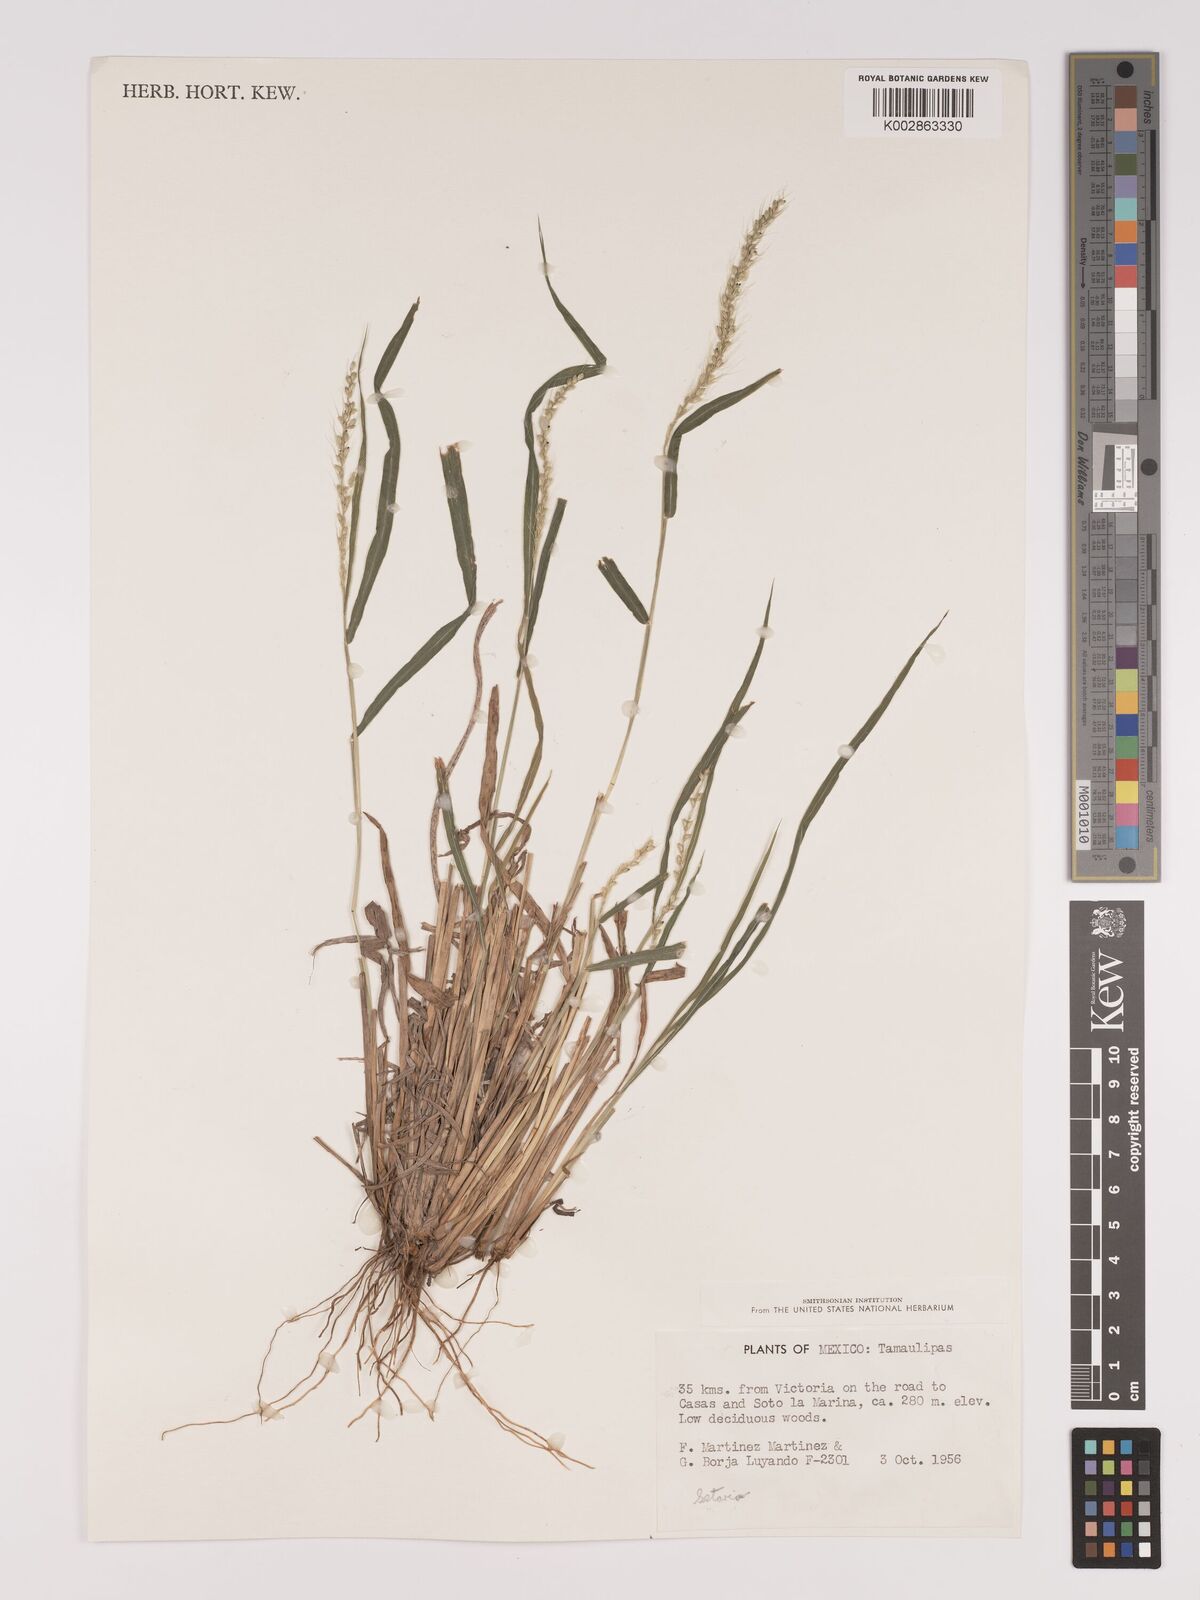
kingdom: Plantae
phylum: Tracheophyta
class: Liliopsida
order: Poales
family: Poaceae
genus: Setaria
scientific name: Setaria
